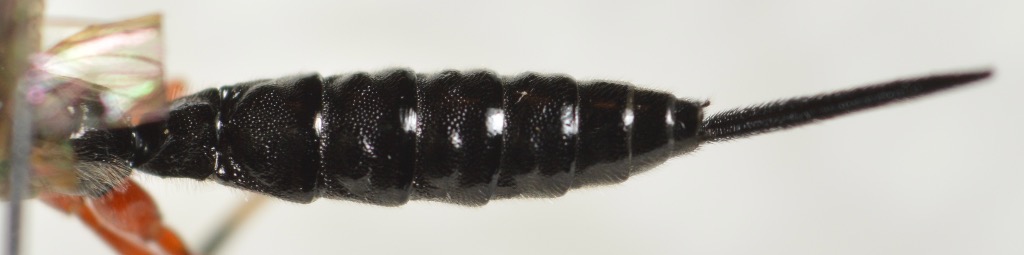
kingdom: Animalia
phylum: Arthropoda
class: Insecta
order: Hymenoptera
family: Ichneumonidae
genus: Iseropus
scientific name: Iseropus stercorator
